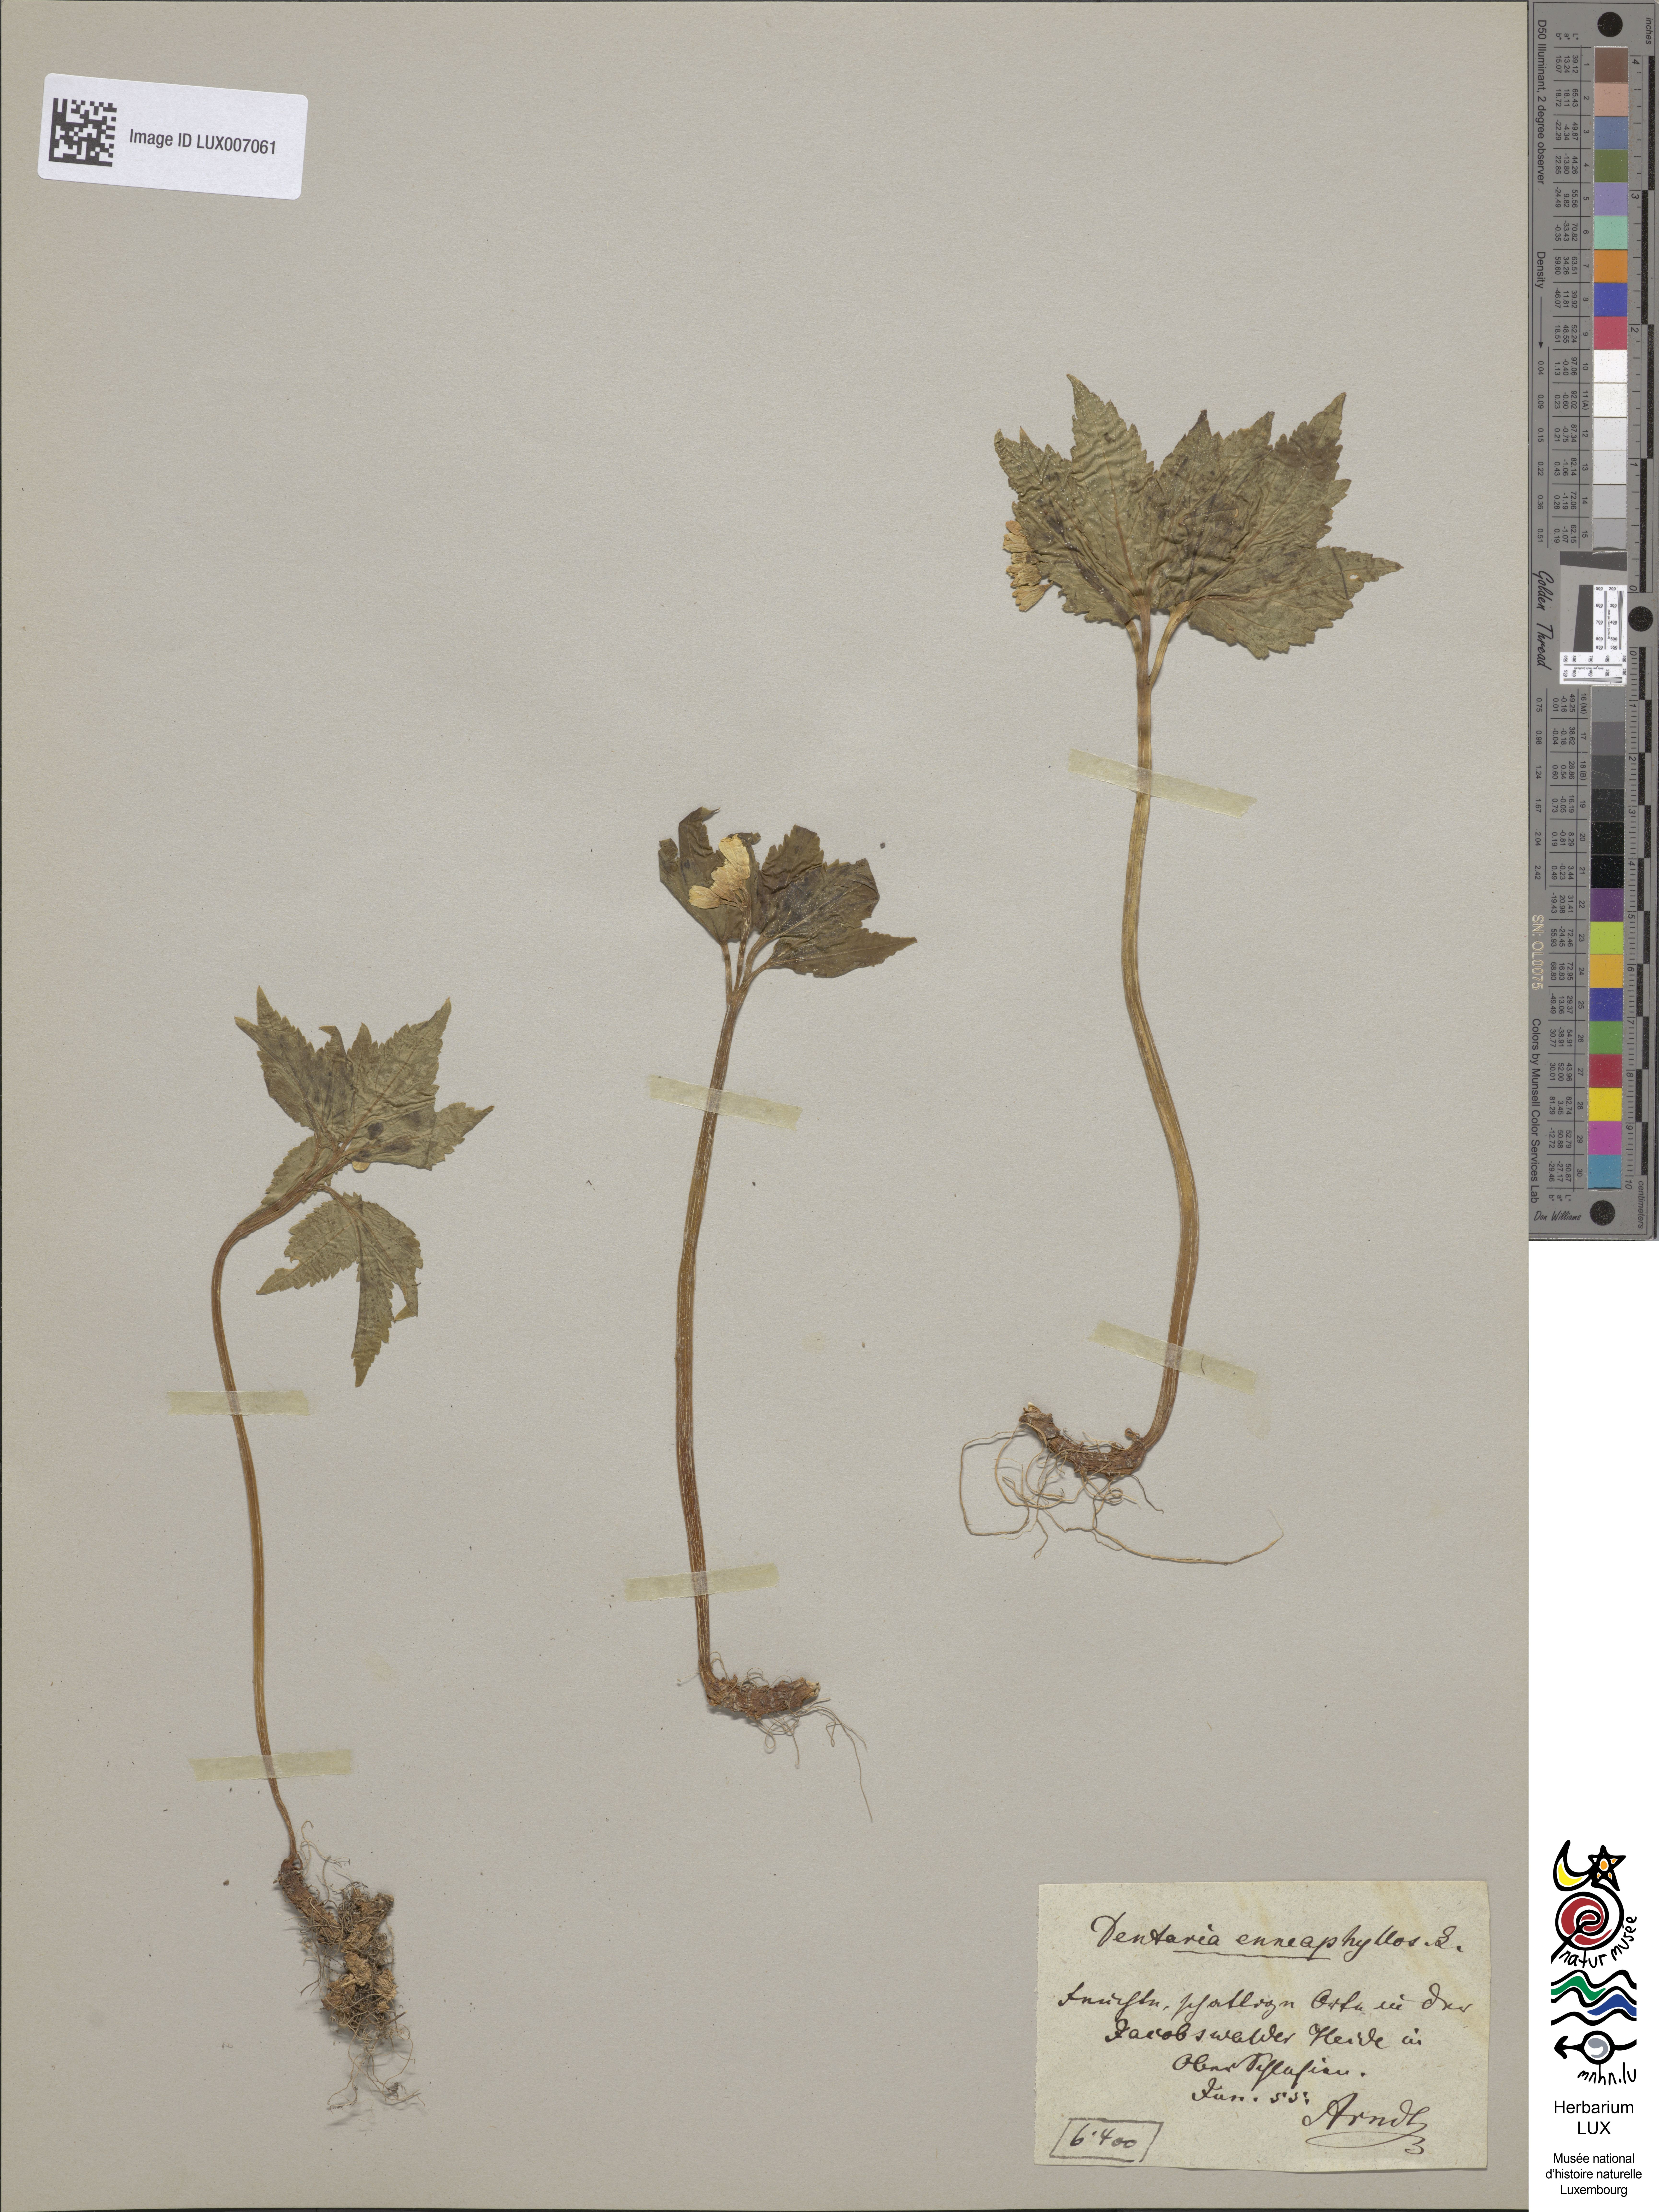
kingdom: Plantae
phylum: Tracheophyta
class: Magnoliopsida
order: Brassicales
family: Brassicaceae
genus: Cardamine
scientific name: Cardamine enneaphyllos
